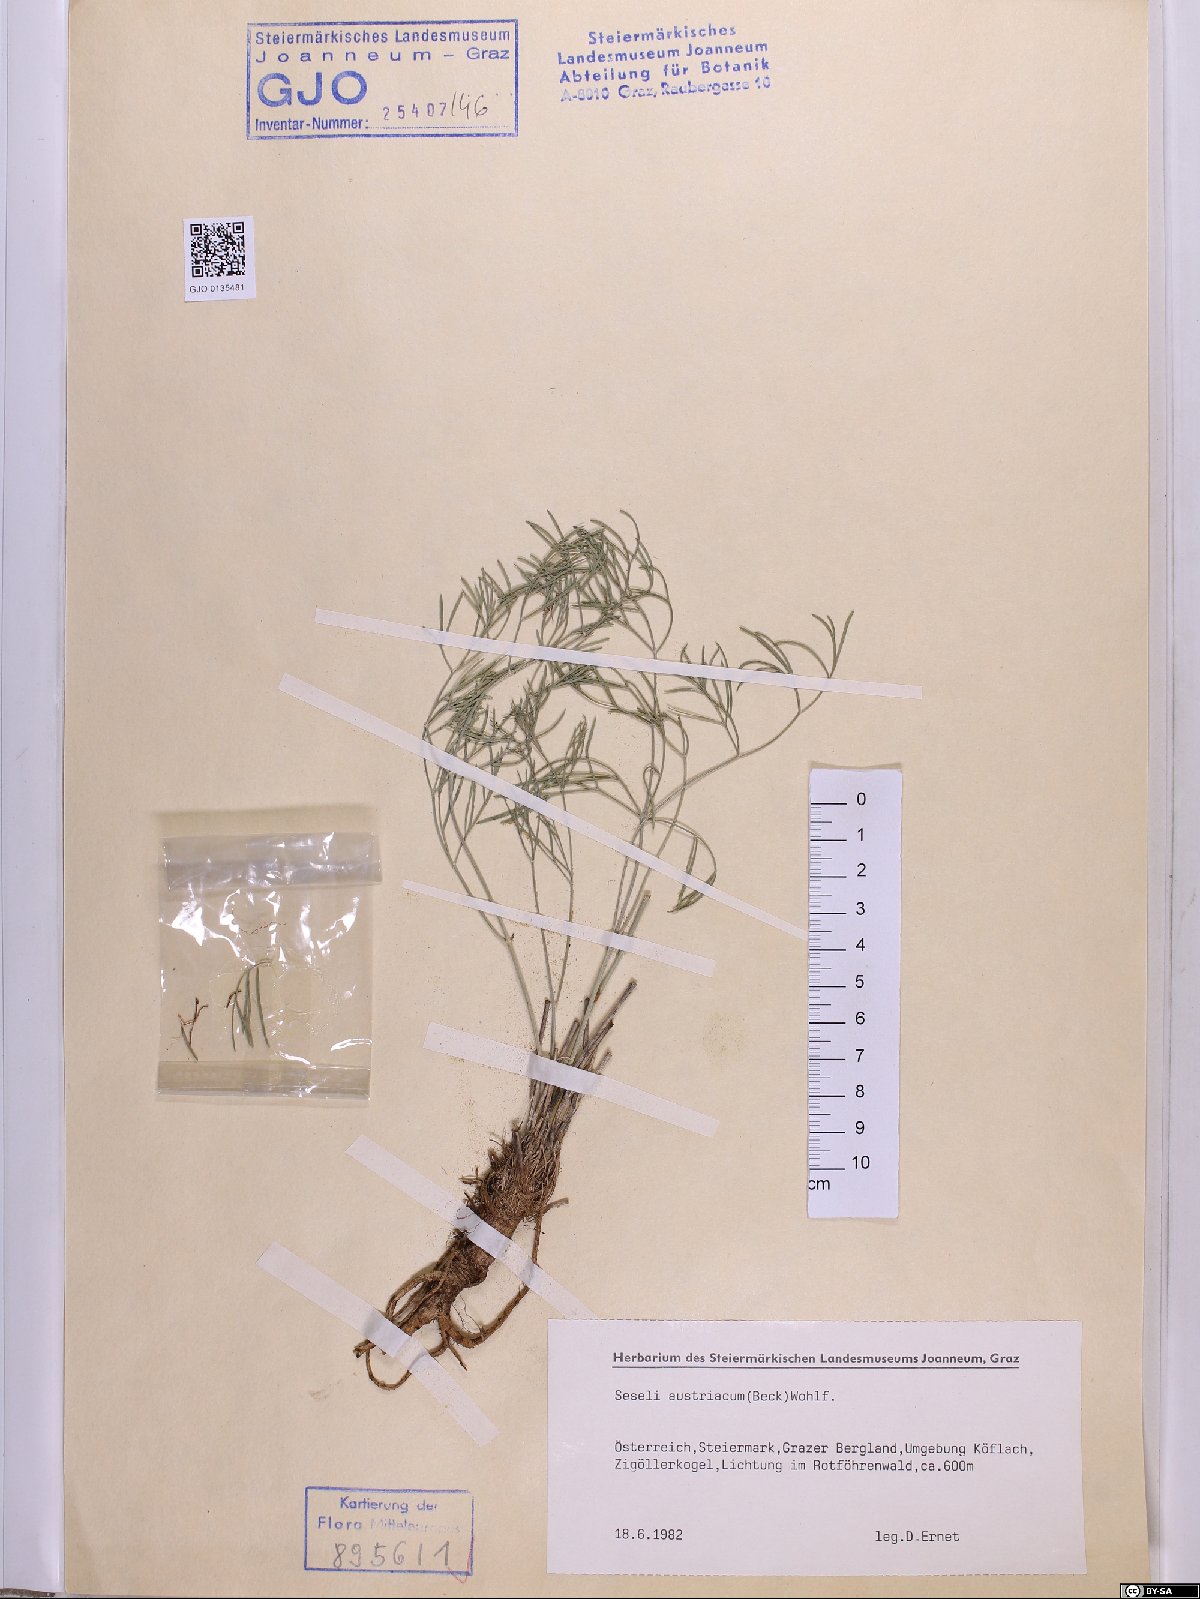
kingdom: Plantae
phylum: Tracheophyta
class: Magnoliopsida
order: Apiales
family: Apiaceae
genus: Seseli
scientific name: Seseli austriacum
